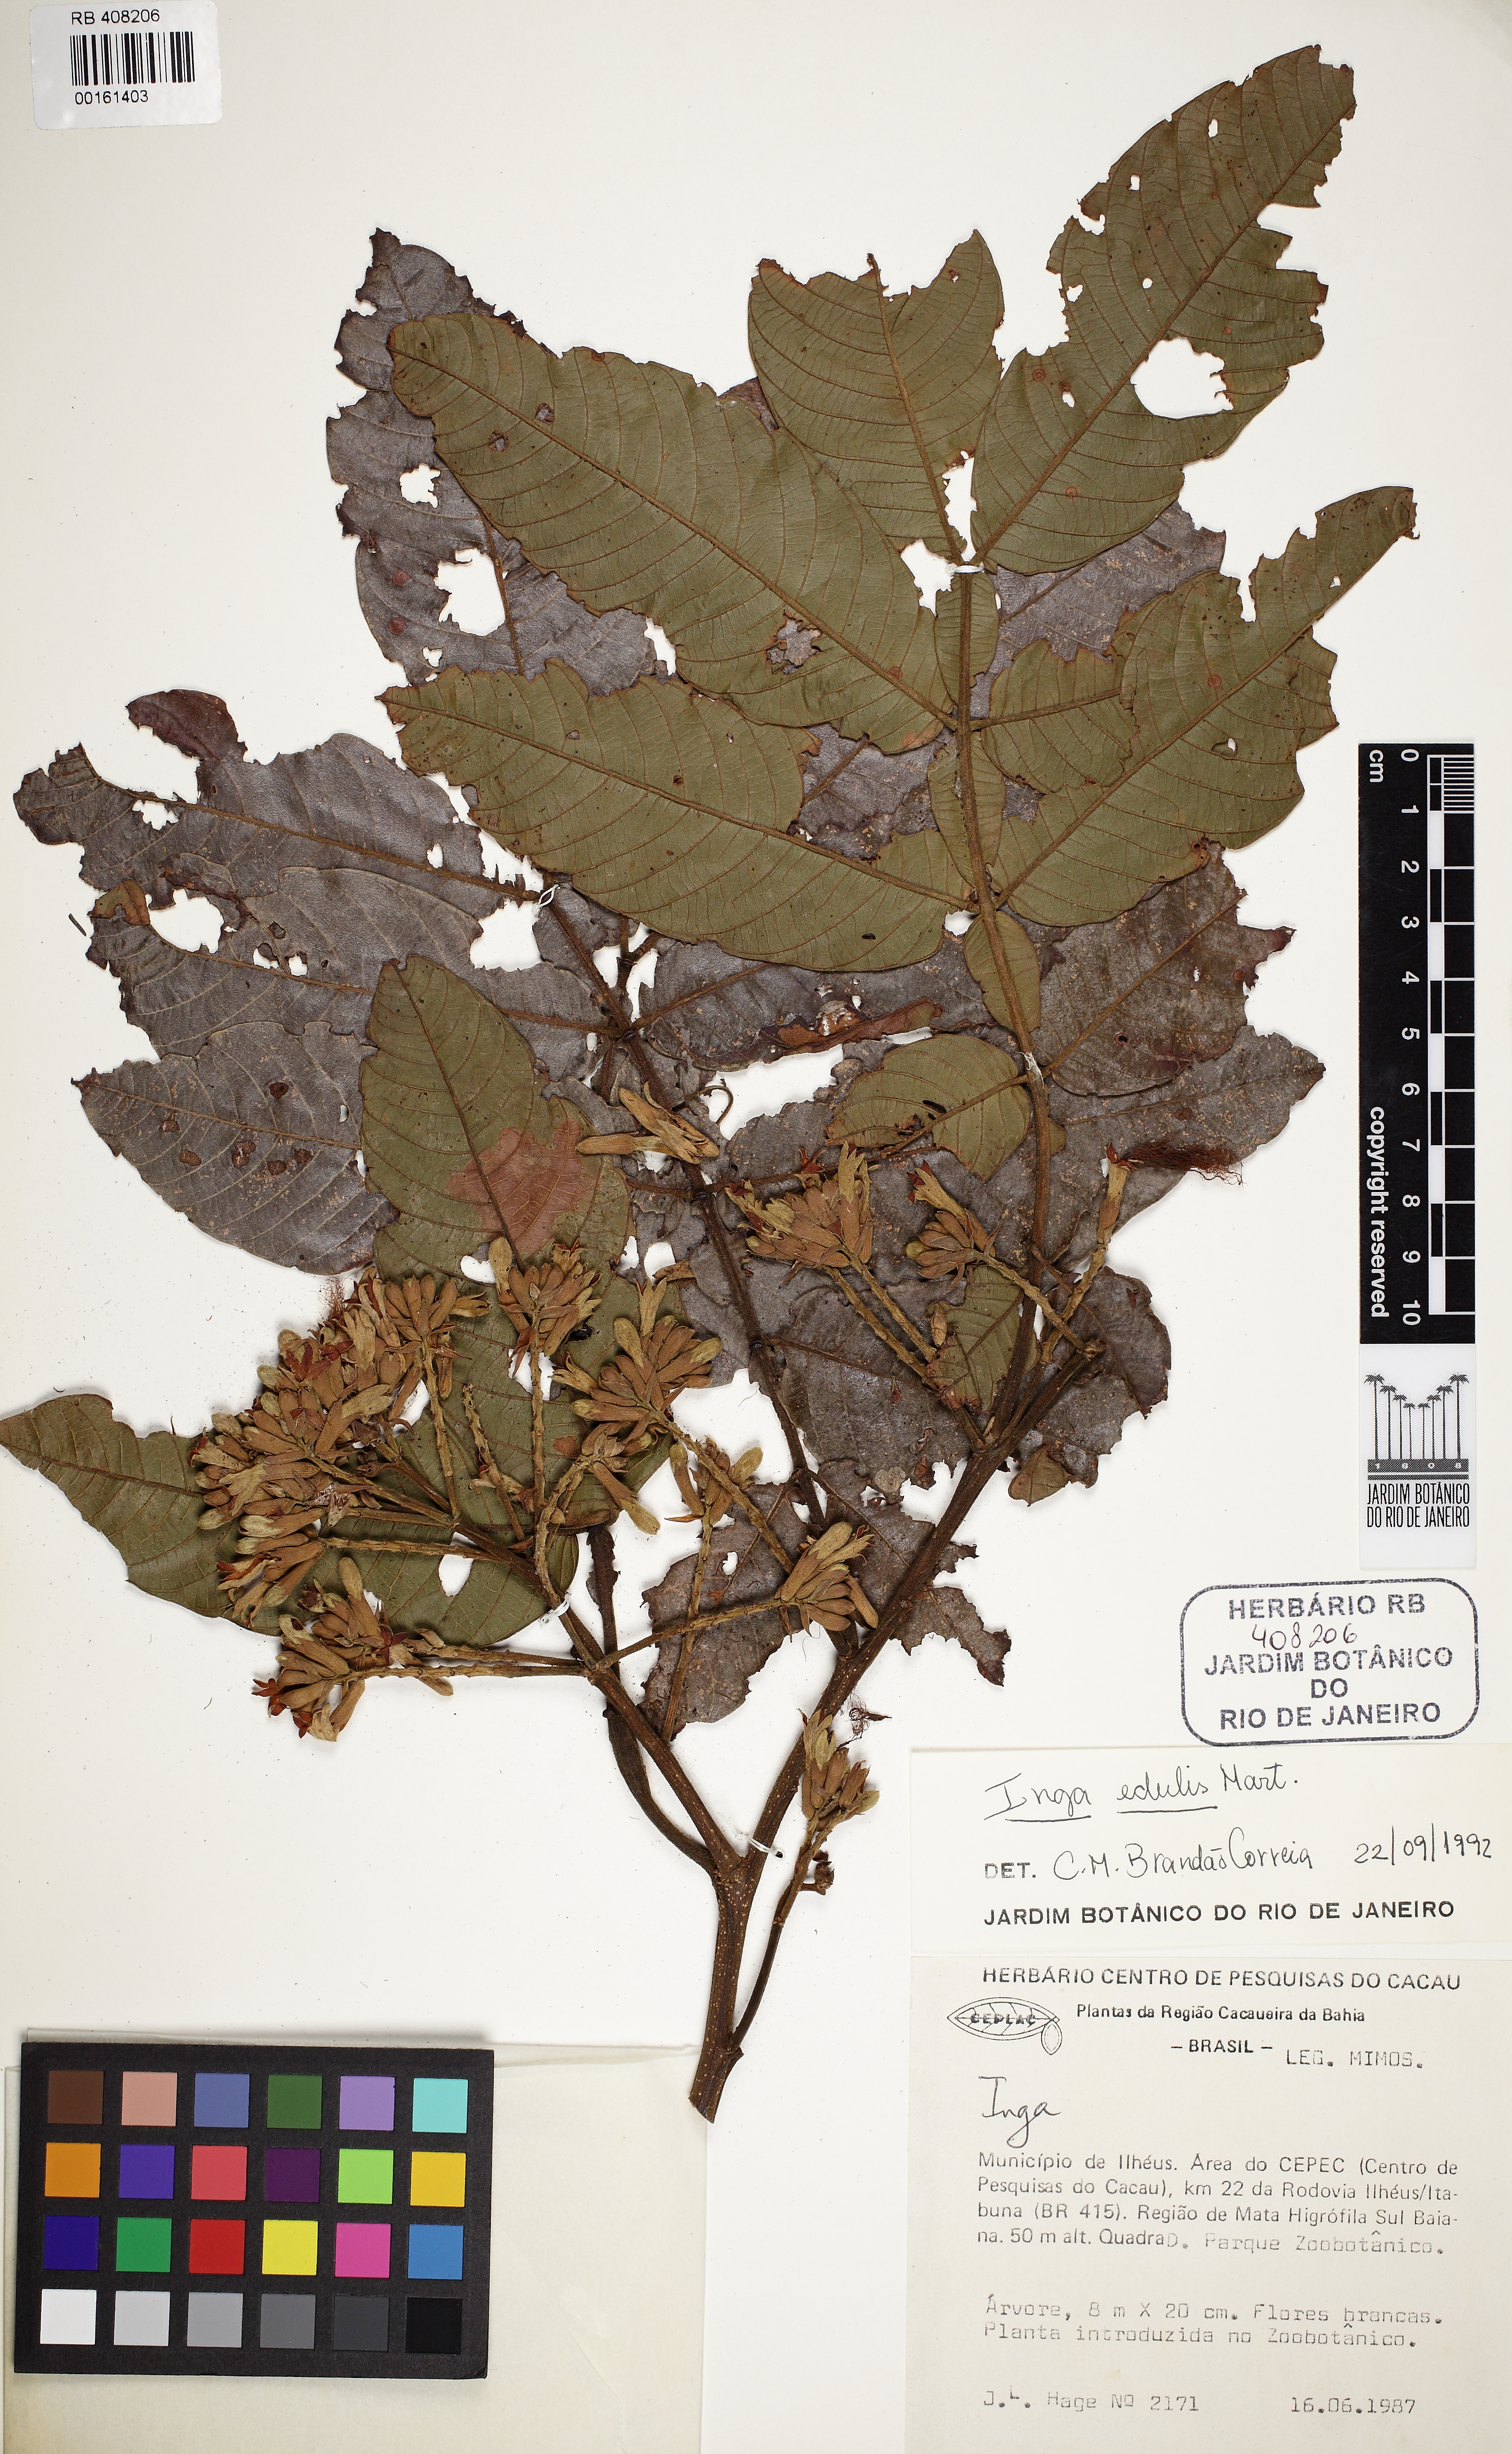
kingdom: Plantae
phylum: Tracheophyta
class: Magnoliopsida
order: Fabales
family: Fabaceae
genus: Inga
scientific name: Inga edulis
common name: Ice cream bean
